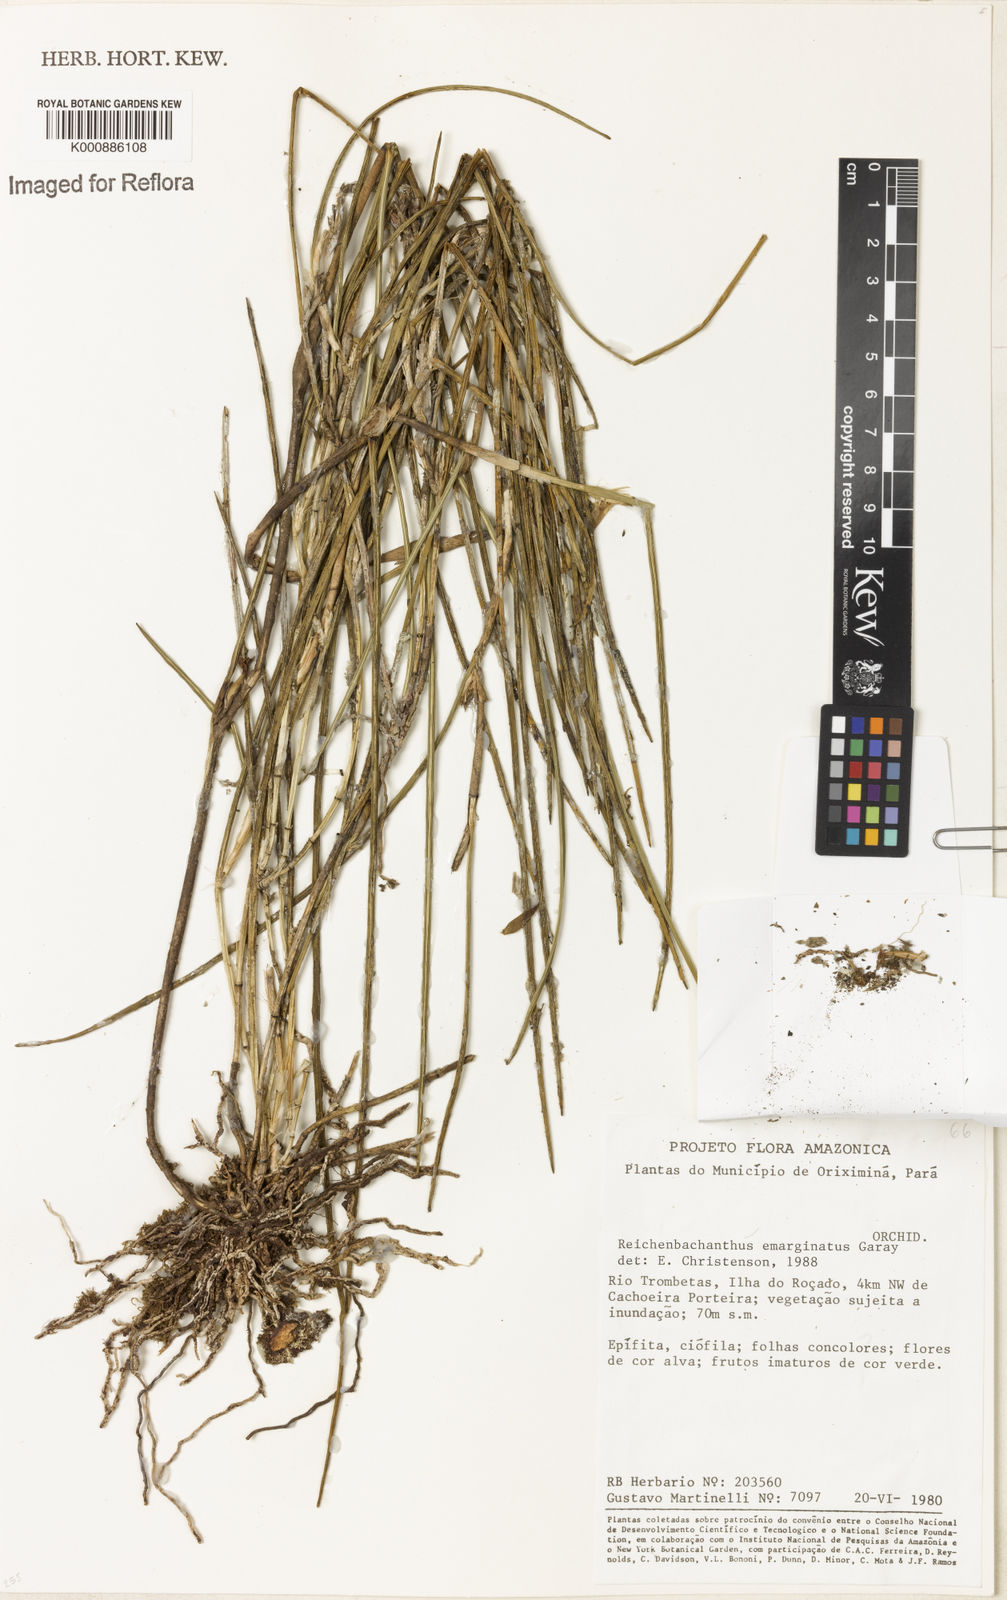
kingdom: Plantae
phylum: Tracheophyta
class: Liliopsida
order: Asparagales
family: Orchidaceae
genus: Scaphyglottis
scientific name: Scaphyglottis emarginata
